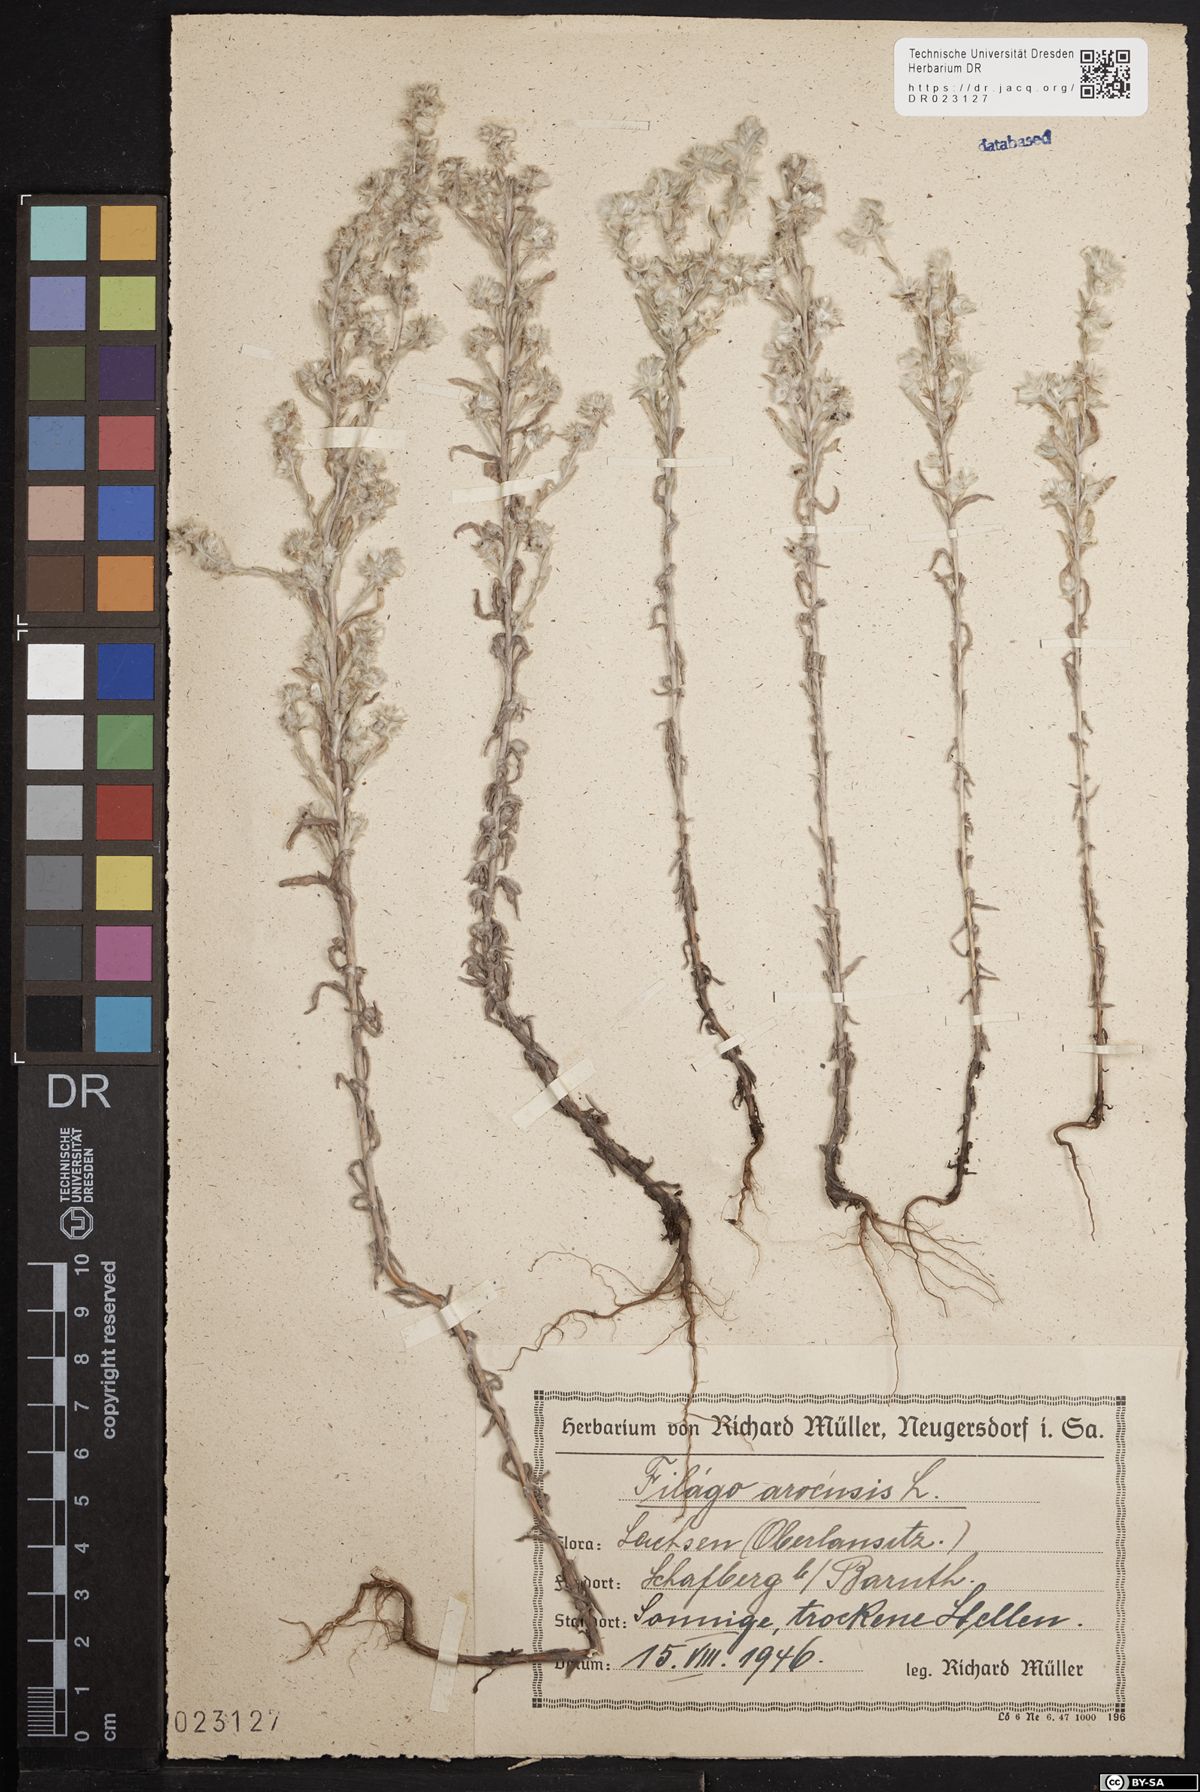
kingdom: Plantae
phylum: Tracheophyta
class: Magnoliopsida
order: Asterales
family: Asteraceae
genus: Filago
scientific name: Filago arvensis
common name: Field cudweed
